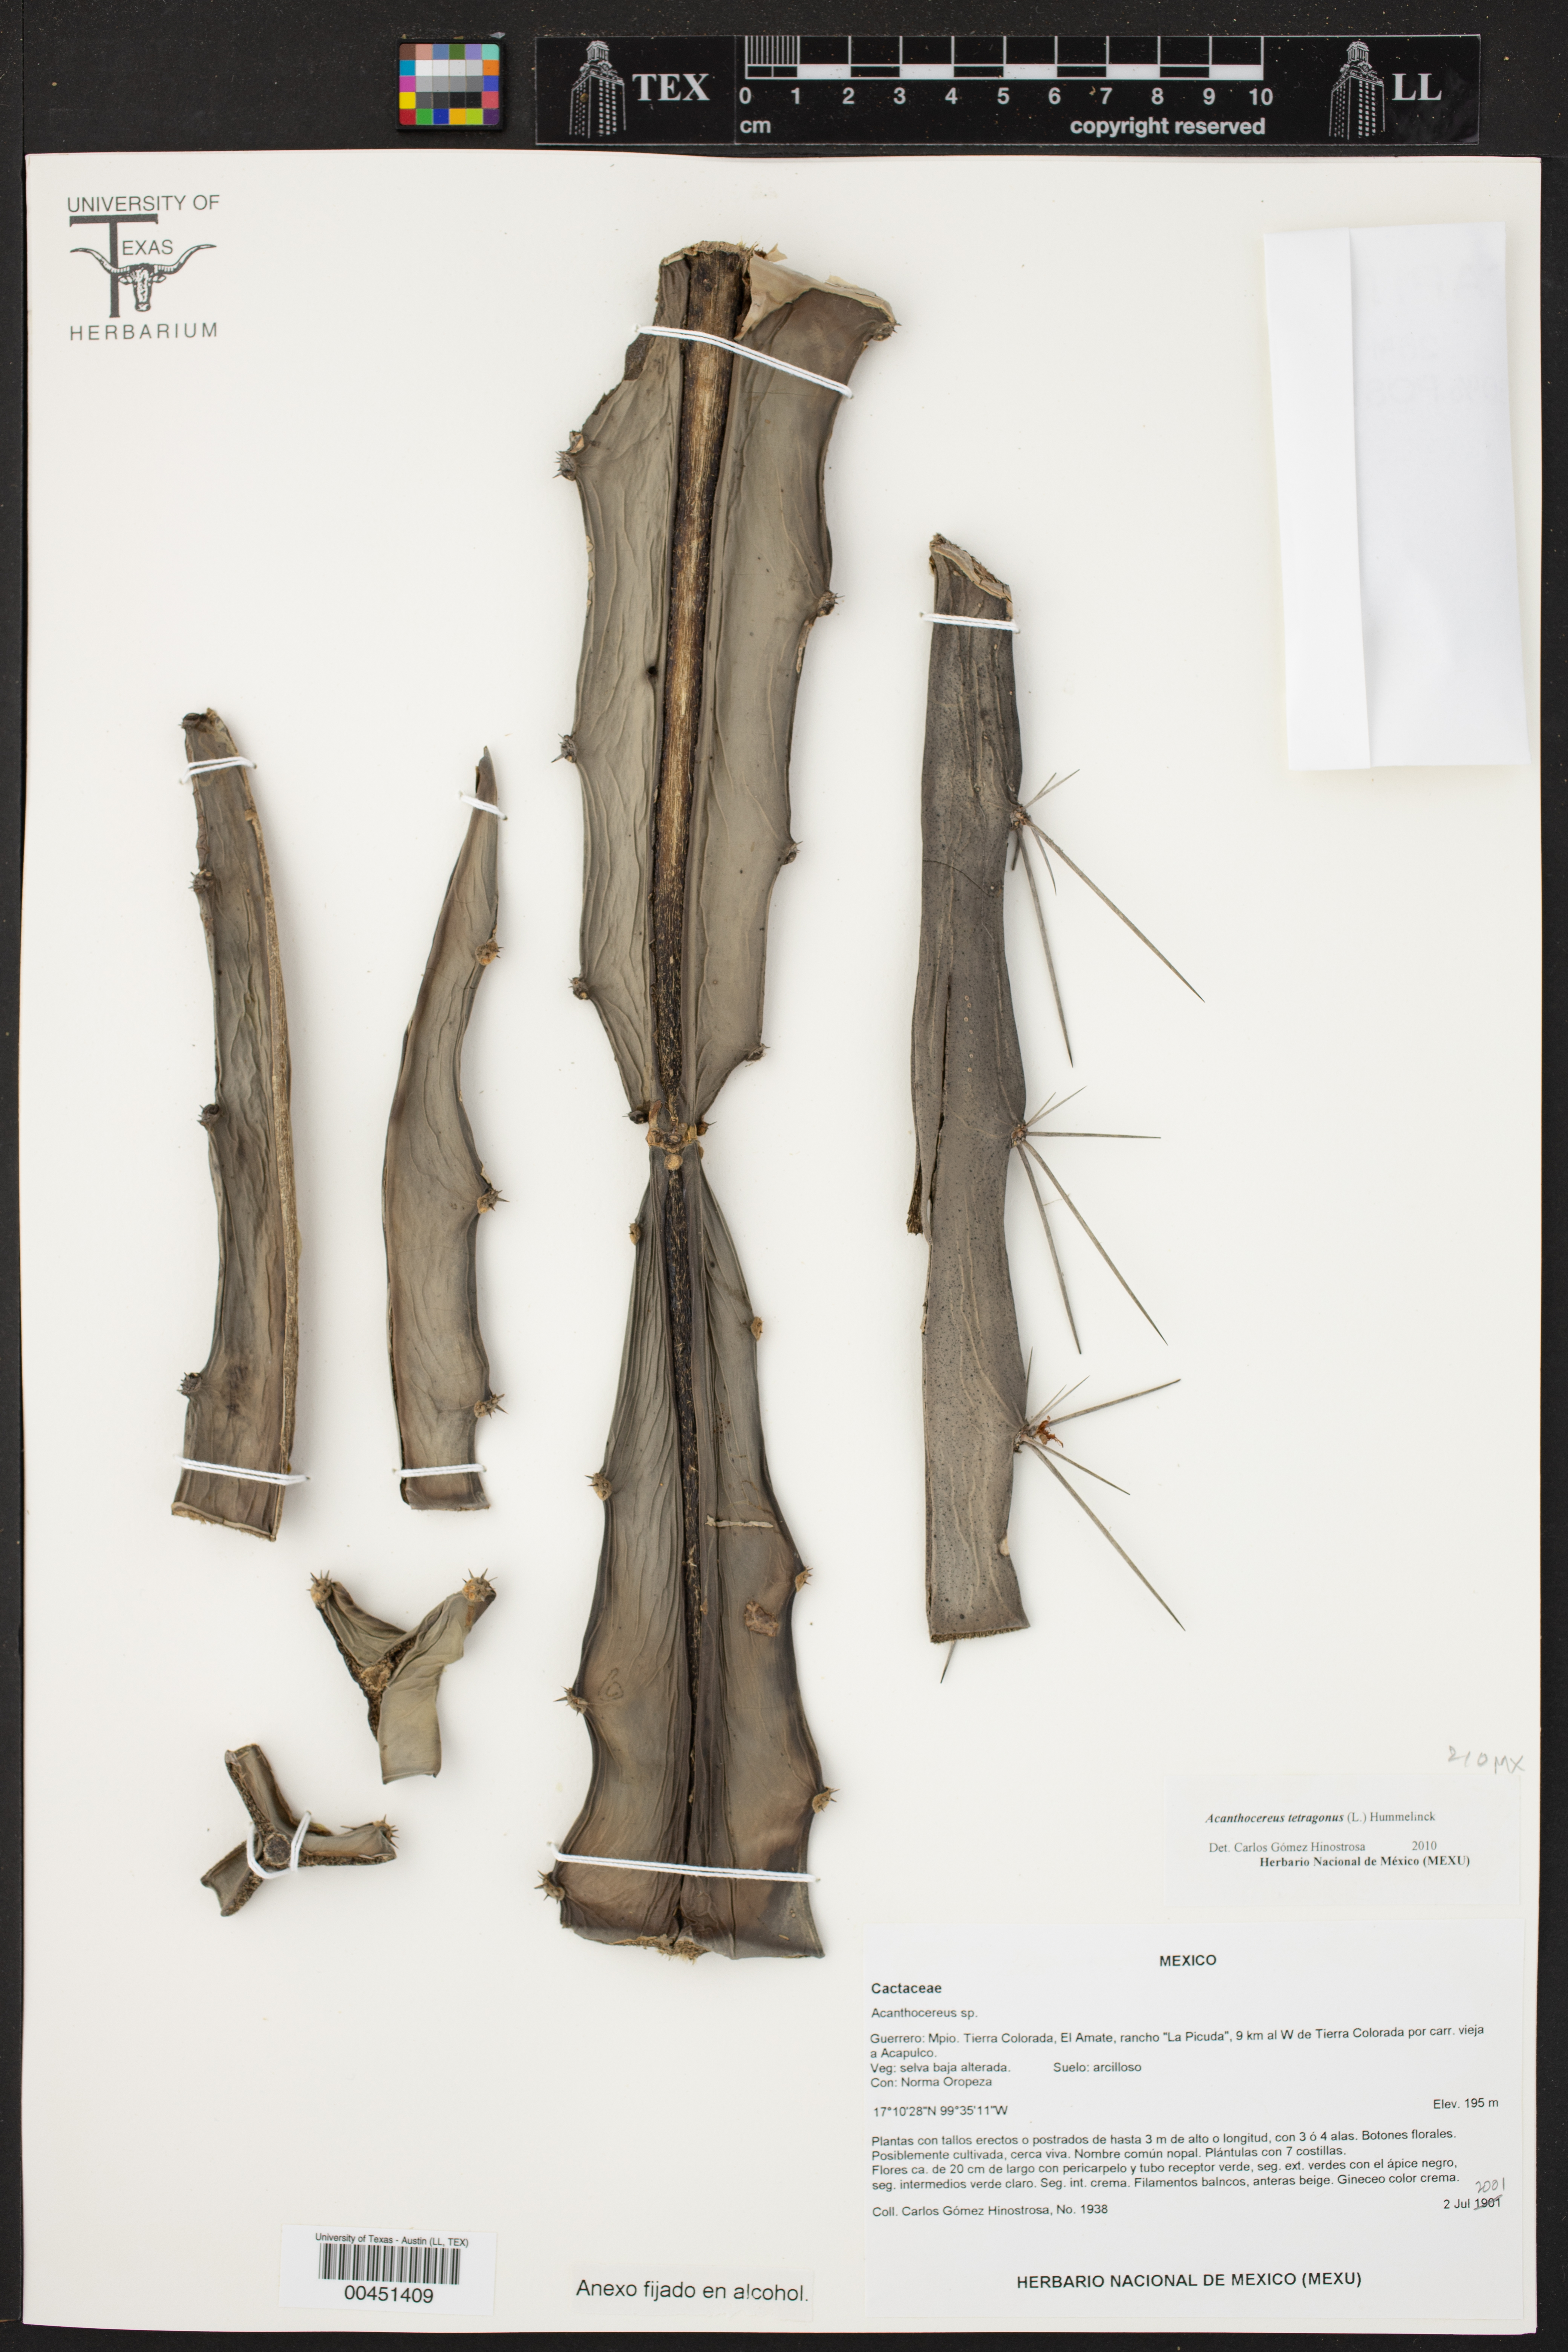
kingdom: Plantae
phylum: Tracheophyta
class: Magnoliopsida
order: Caryophyllales
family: Cactaceae
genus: Acanthocereus
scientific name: Acanthocereus tetragonus
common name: Triangle cactus
